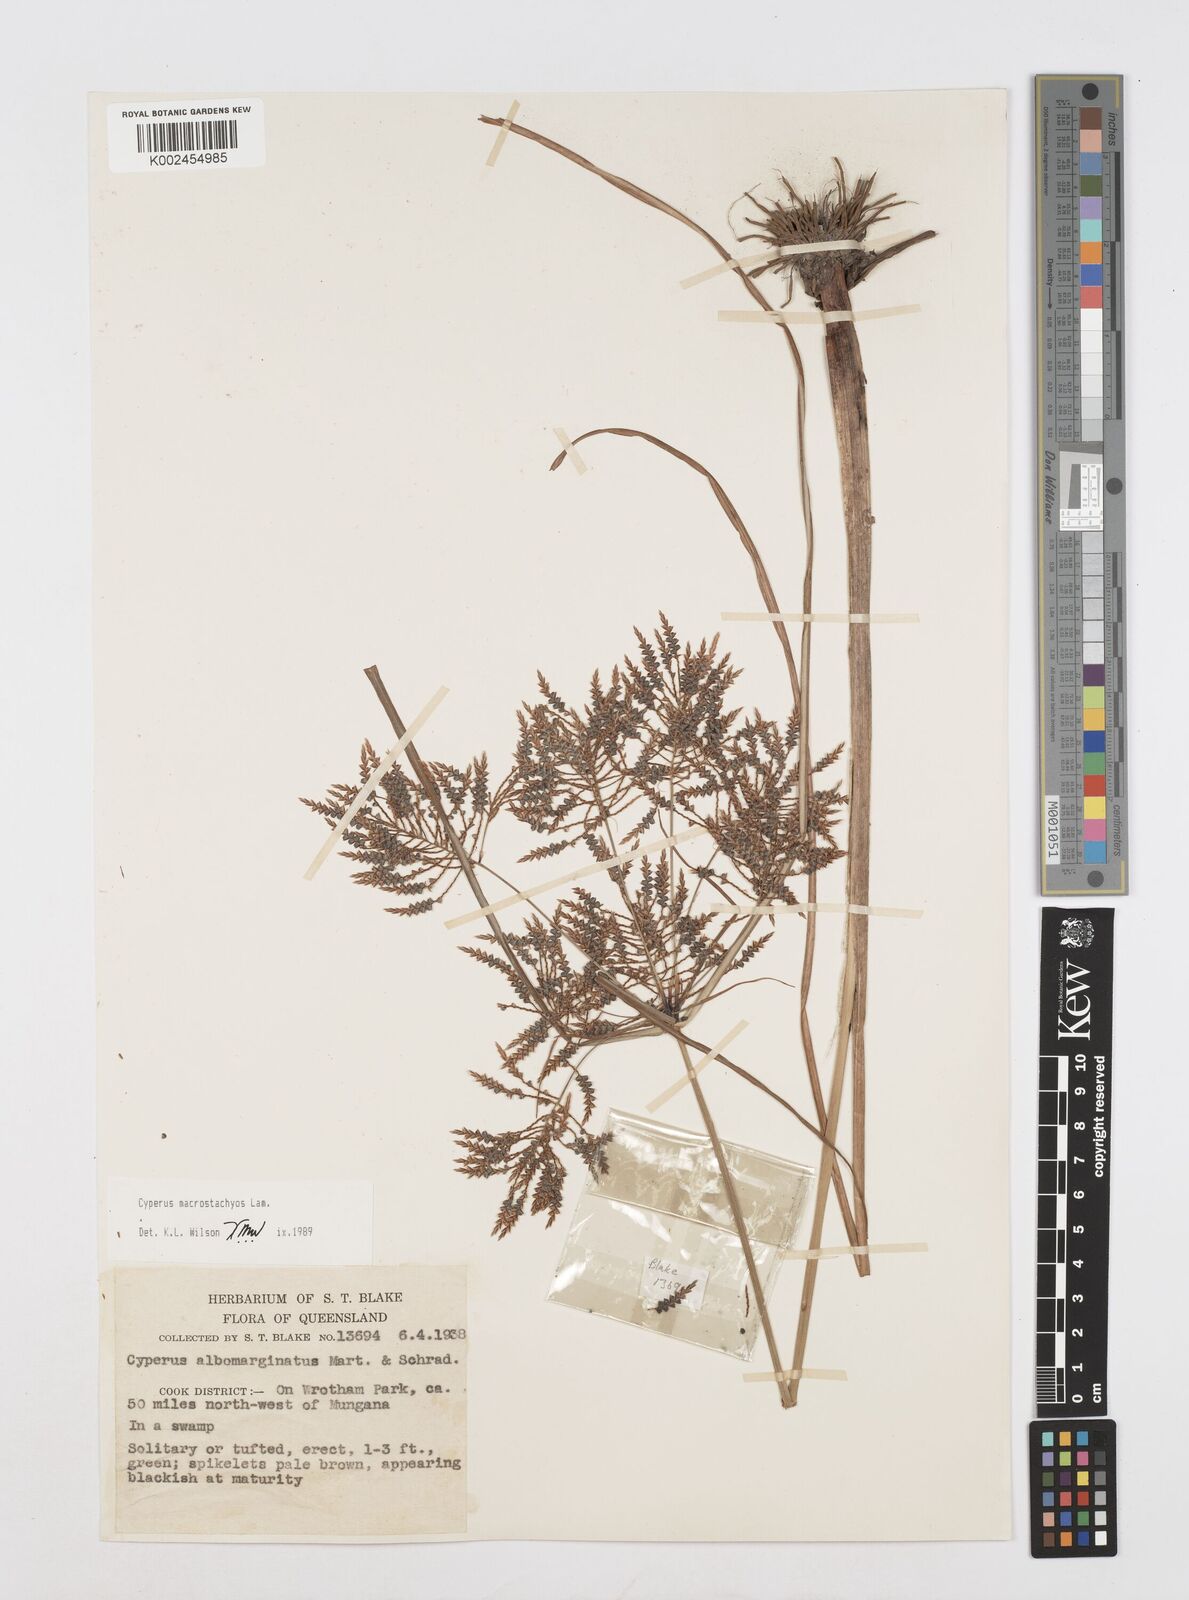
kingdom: Plantae
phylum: Tracheophyta
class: Liliopsida
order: Poales
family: Cyperaceae
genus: Cyperus
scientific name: Cyperus macrostachyos
